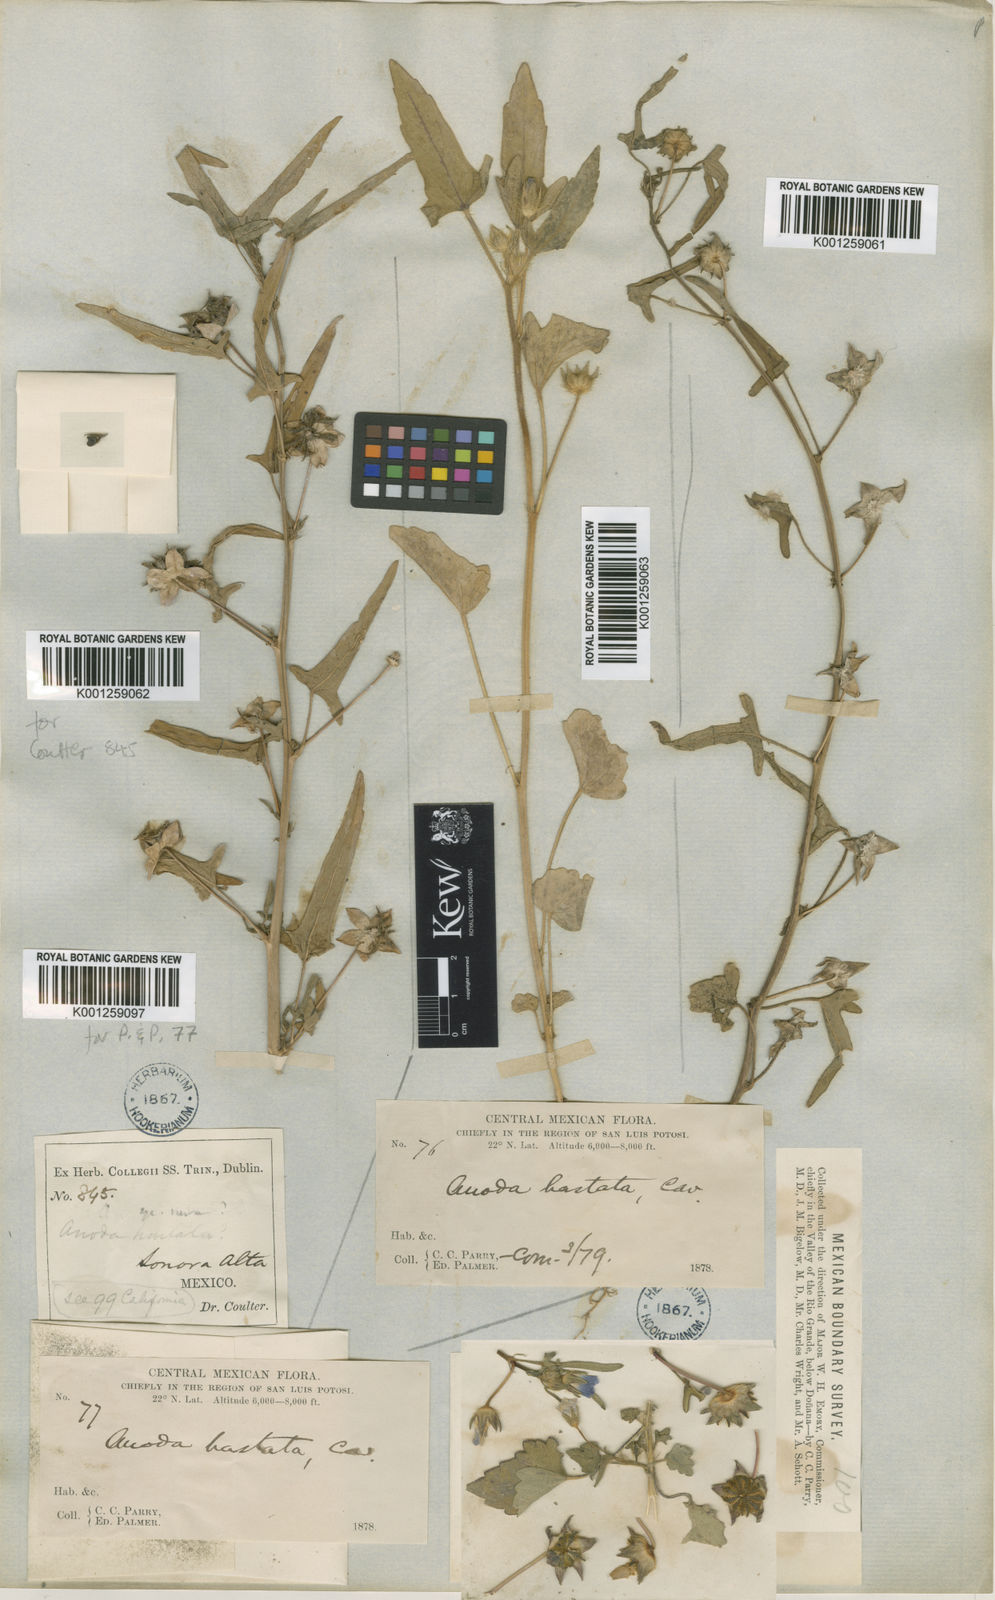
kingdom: Plantae
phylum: Tracheophyta
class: Magnoliopsida
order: Malvales
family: Malvaceae
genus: Anoda
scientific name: Anoda cristata
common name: Spurred anoda
